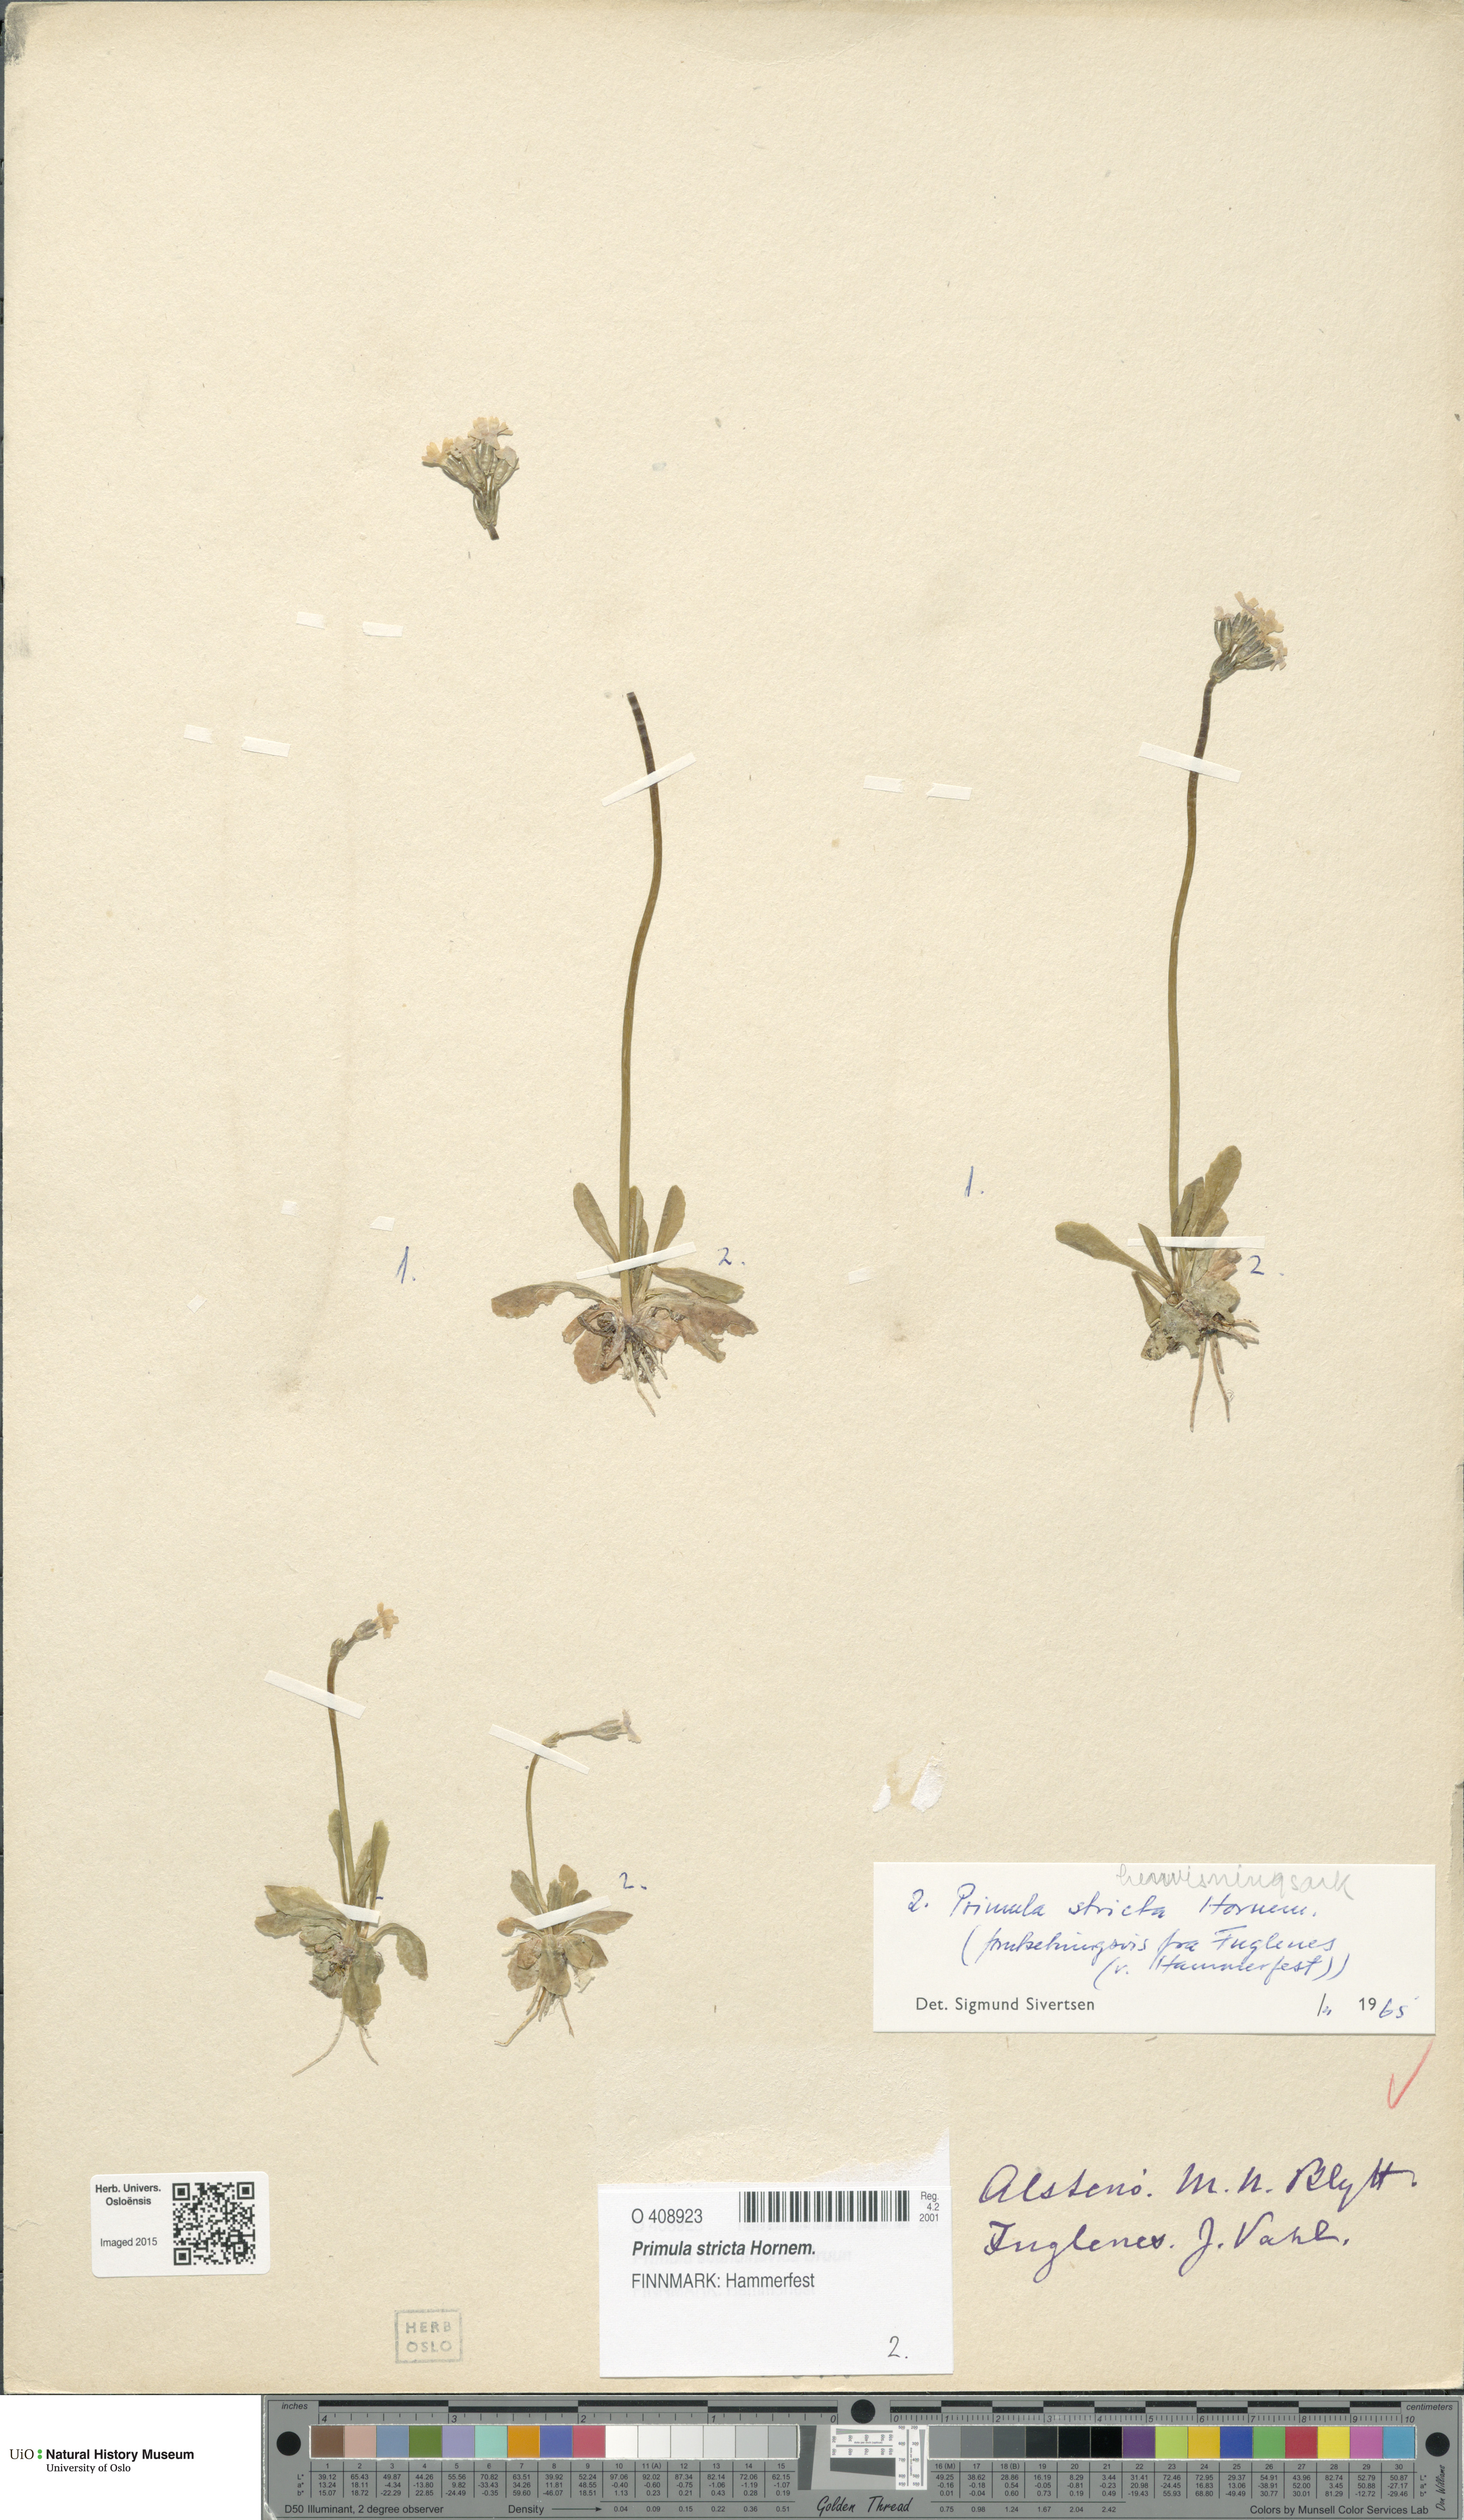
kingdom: Plantae
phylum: Tracheophyta
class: Magnoliopsida
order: Ericales
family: Primulaceae
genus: Primula
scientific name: Primula stricta
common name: Coastal primrose
